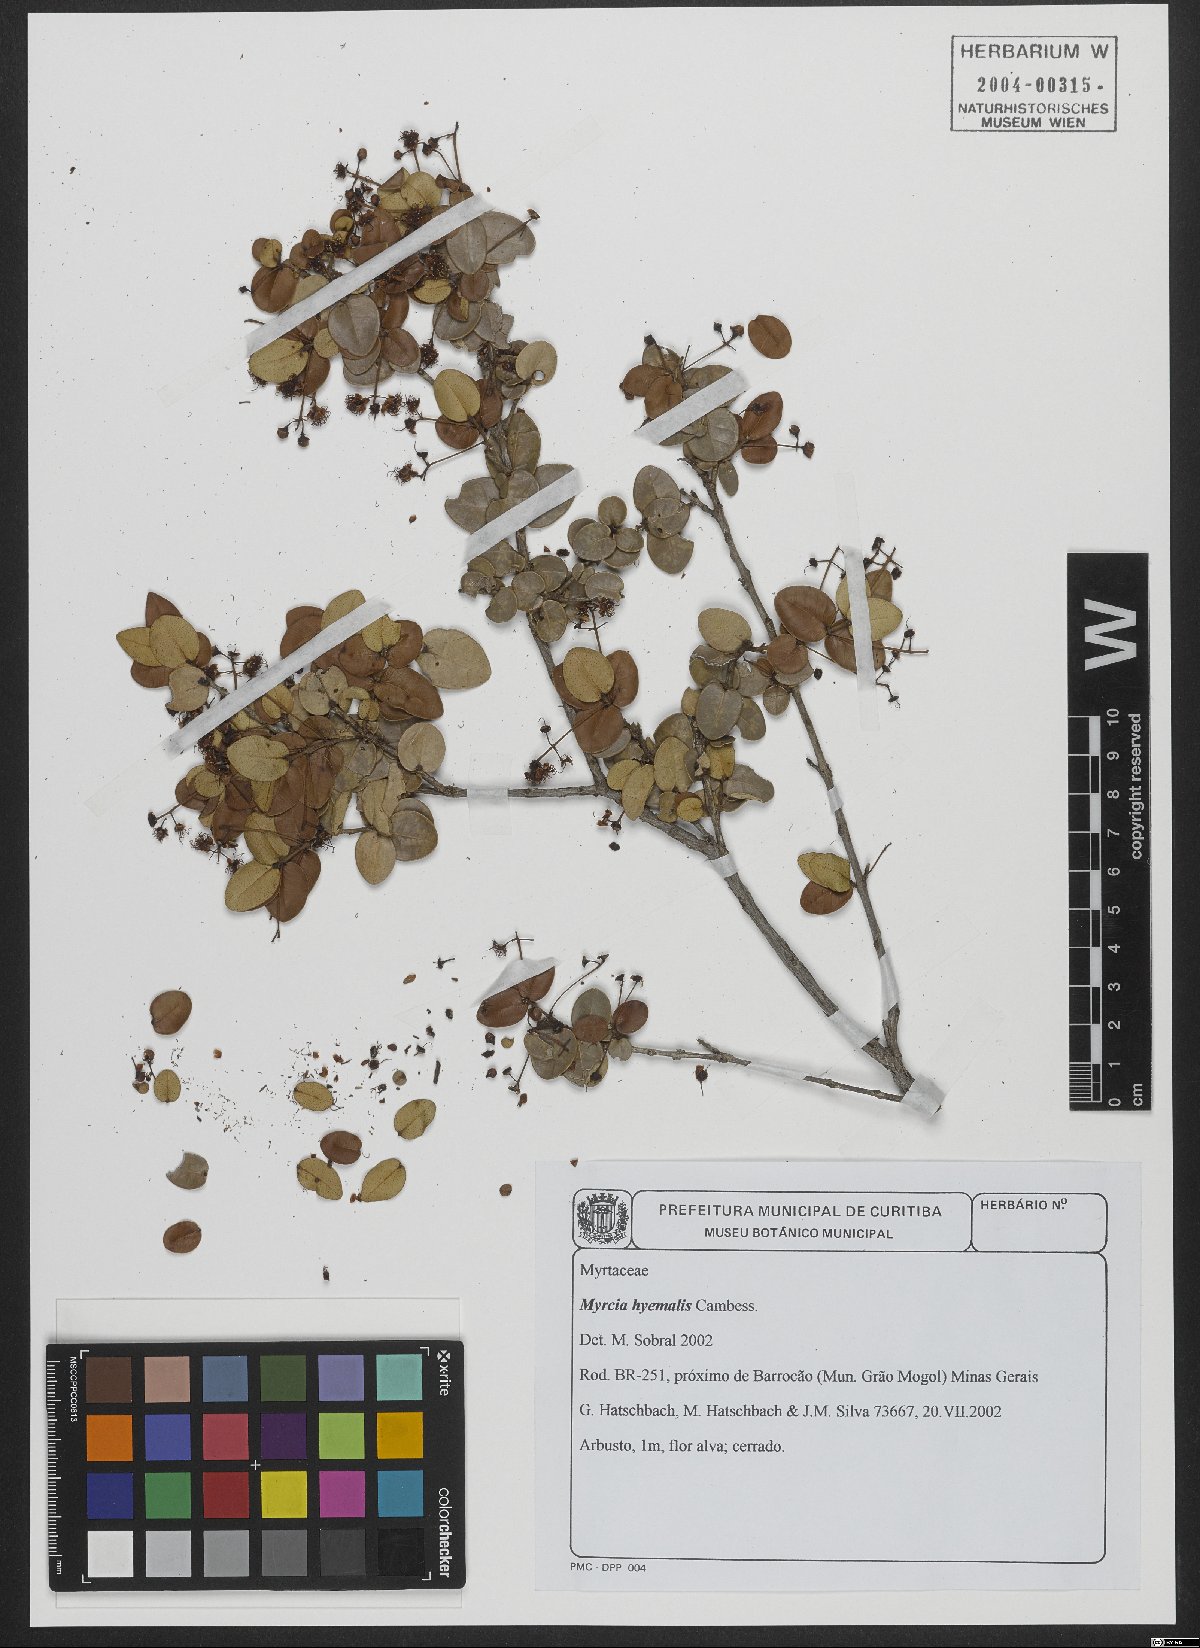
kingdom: Plantae
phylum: Tracheophyta
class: Magnoliopsida
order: Myrtales
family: Myrtaceae
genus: Myrcia
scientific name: Myrcia hiemalis
